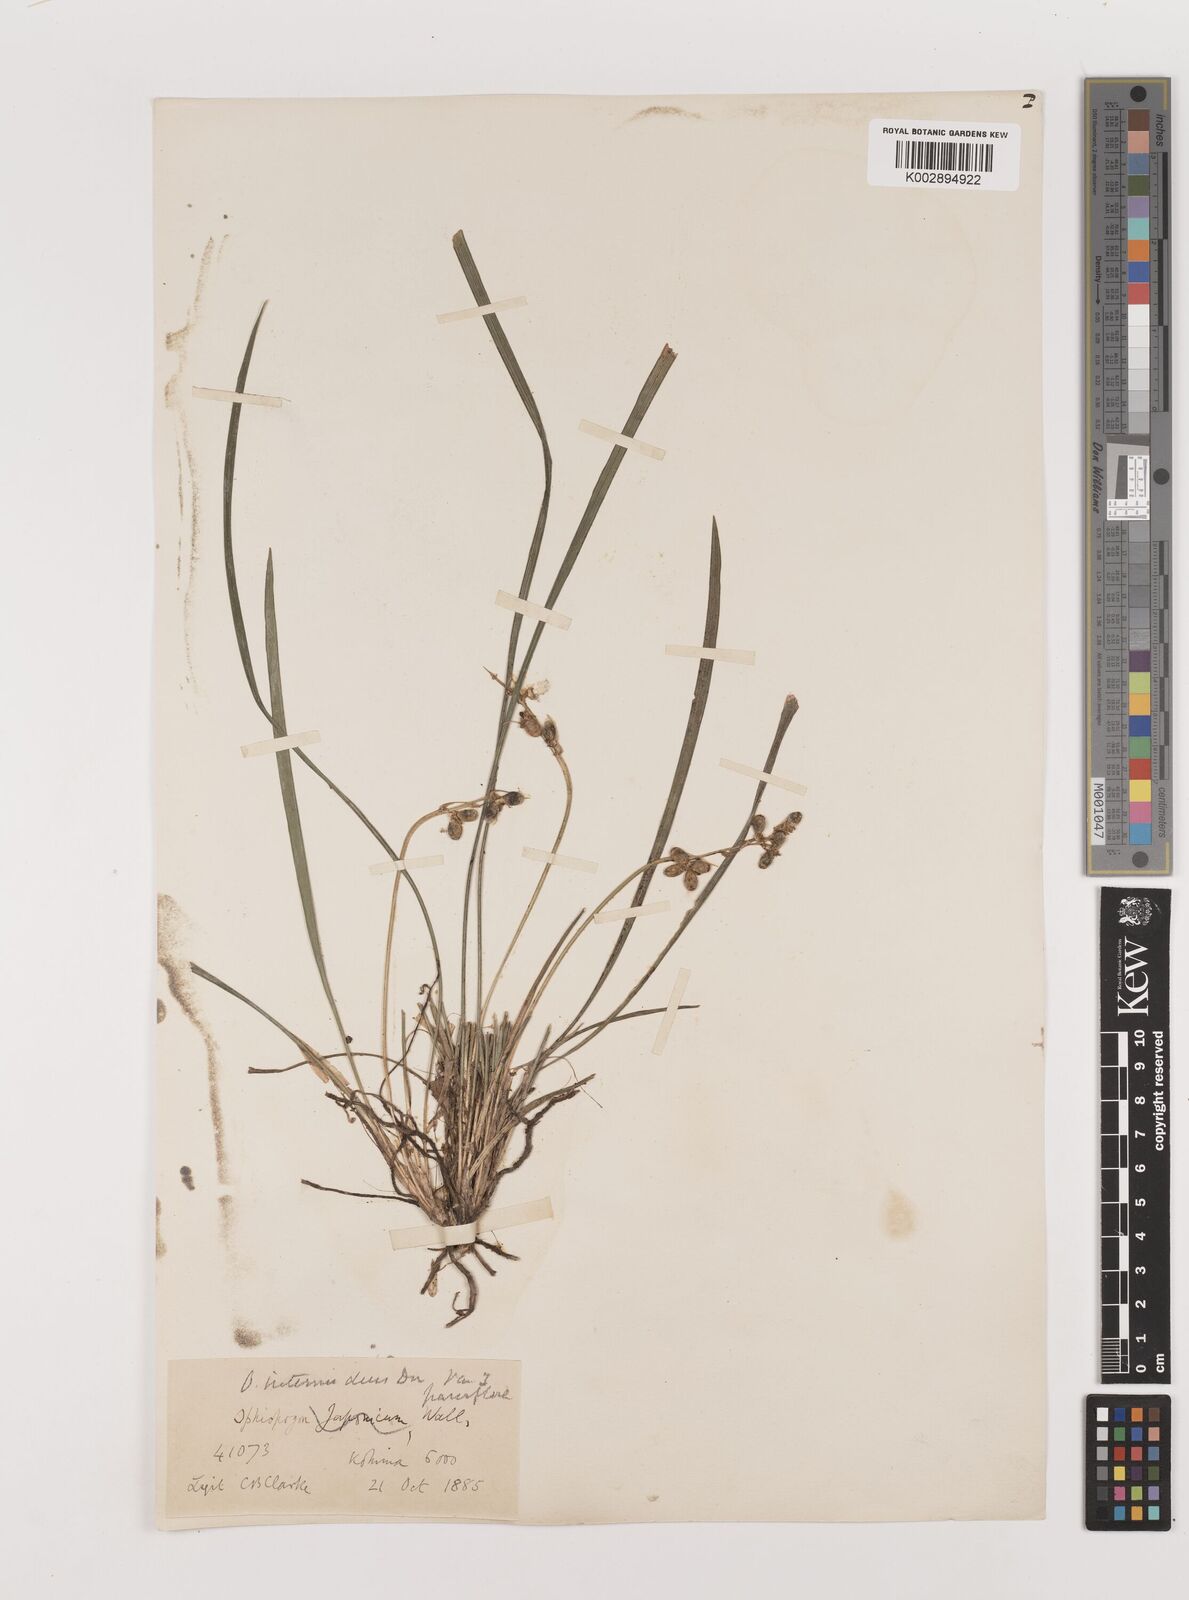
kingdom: Plantae
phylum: Tracheophyta
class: Liliopsida
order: Asparagales
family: Asparagaceae
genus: Ophiopogon
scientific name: Ophiopogon intermedius
